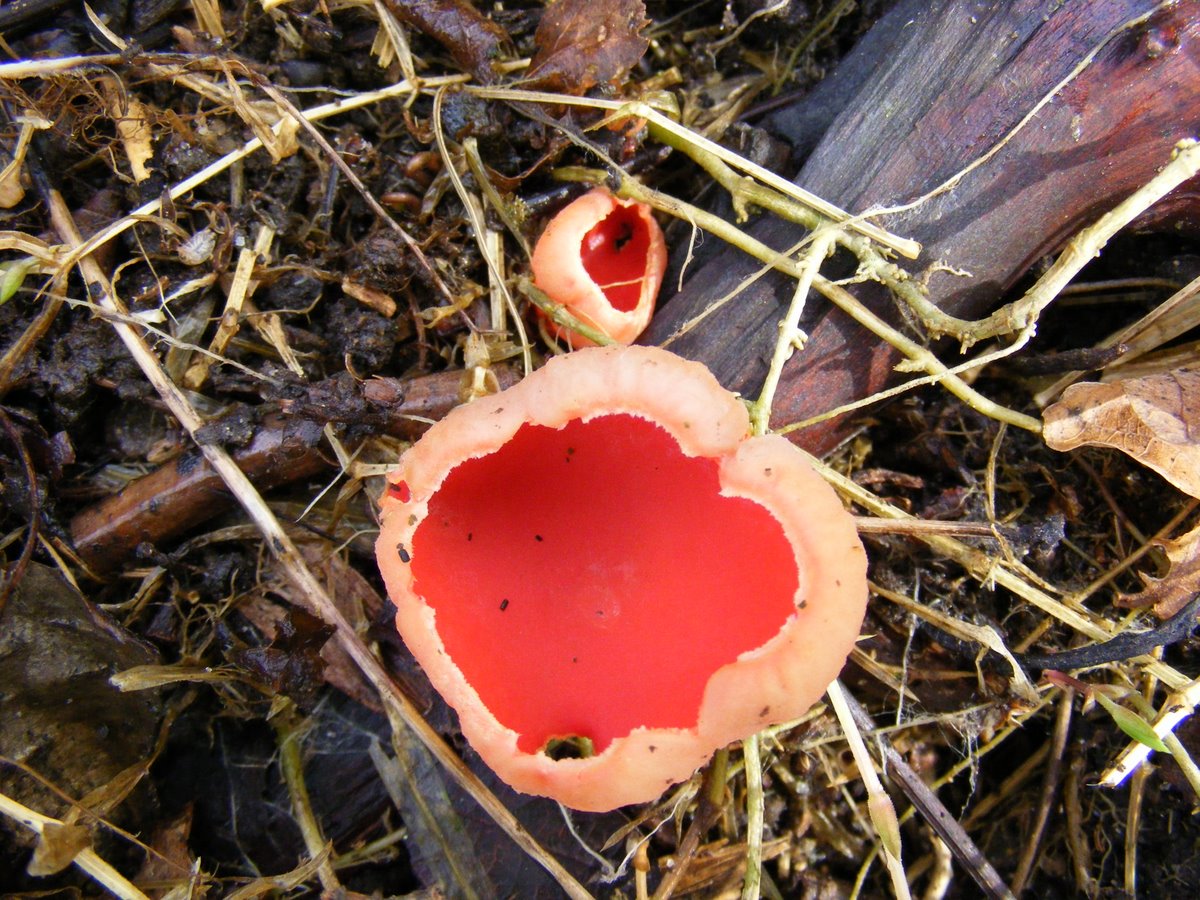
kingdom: Fungi
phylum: Ascomycota
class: Pezizomycetes
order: Pezizales
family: Sarcoscyphaceae
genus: Sarcoscypha
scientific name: Sarcoscypha austriaca
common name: krølhåret pragtbæger
